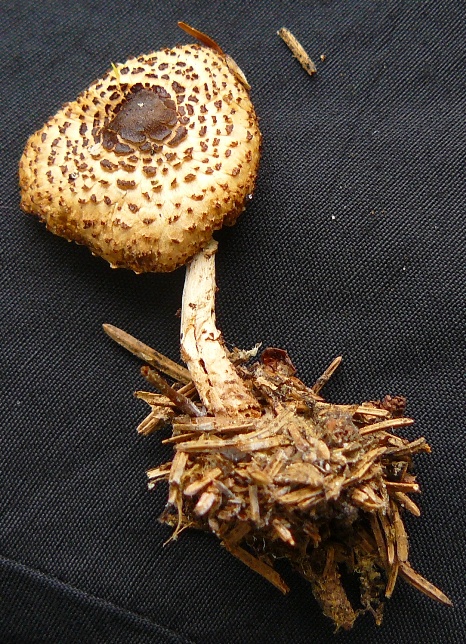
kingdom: Fungi
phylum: Basidiomycota
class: Agaricomycetes
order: Agaricales
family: Agaricaceae
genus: Lepiota
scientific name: Lepiota felina
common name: sortskællet parasolhat
